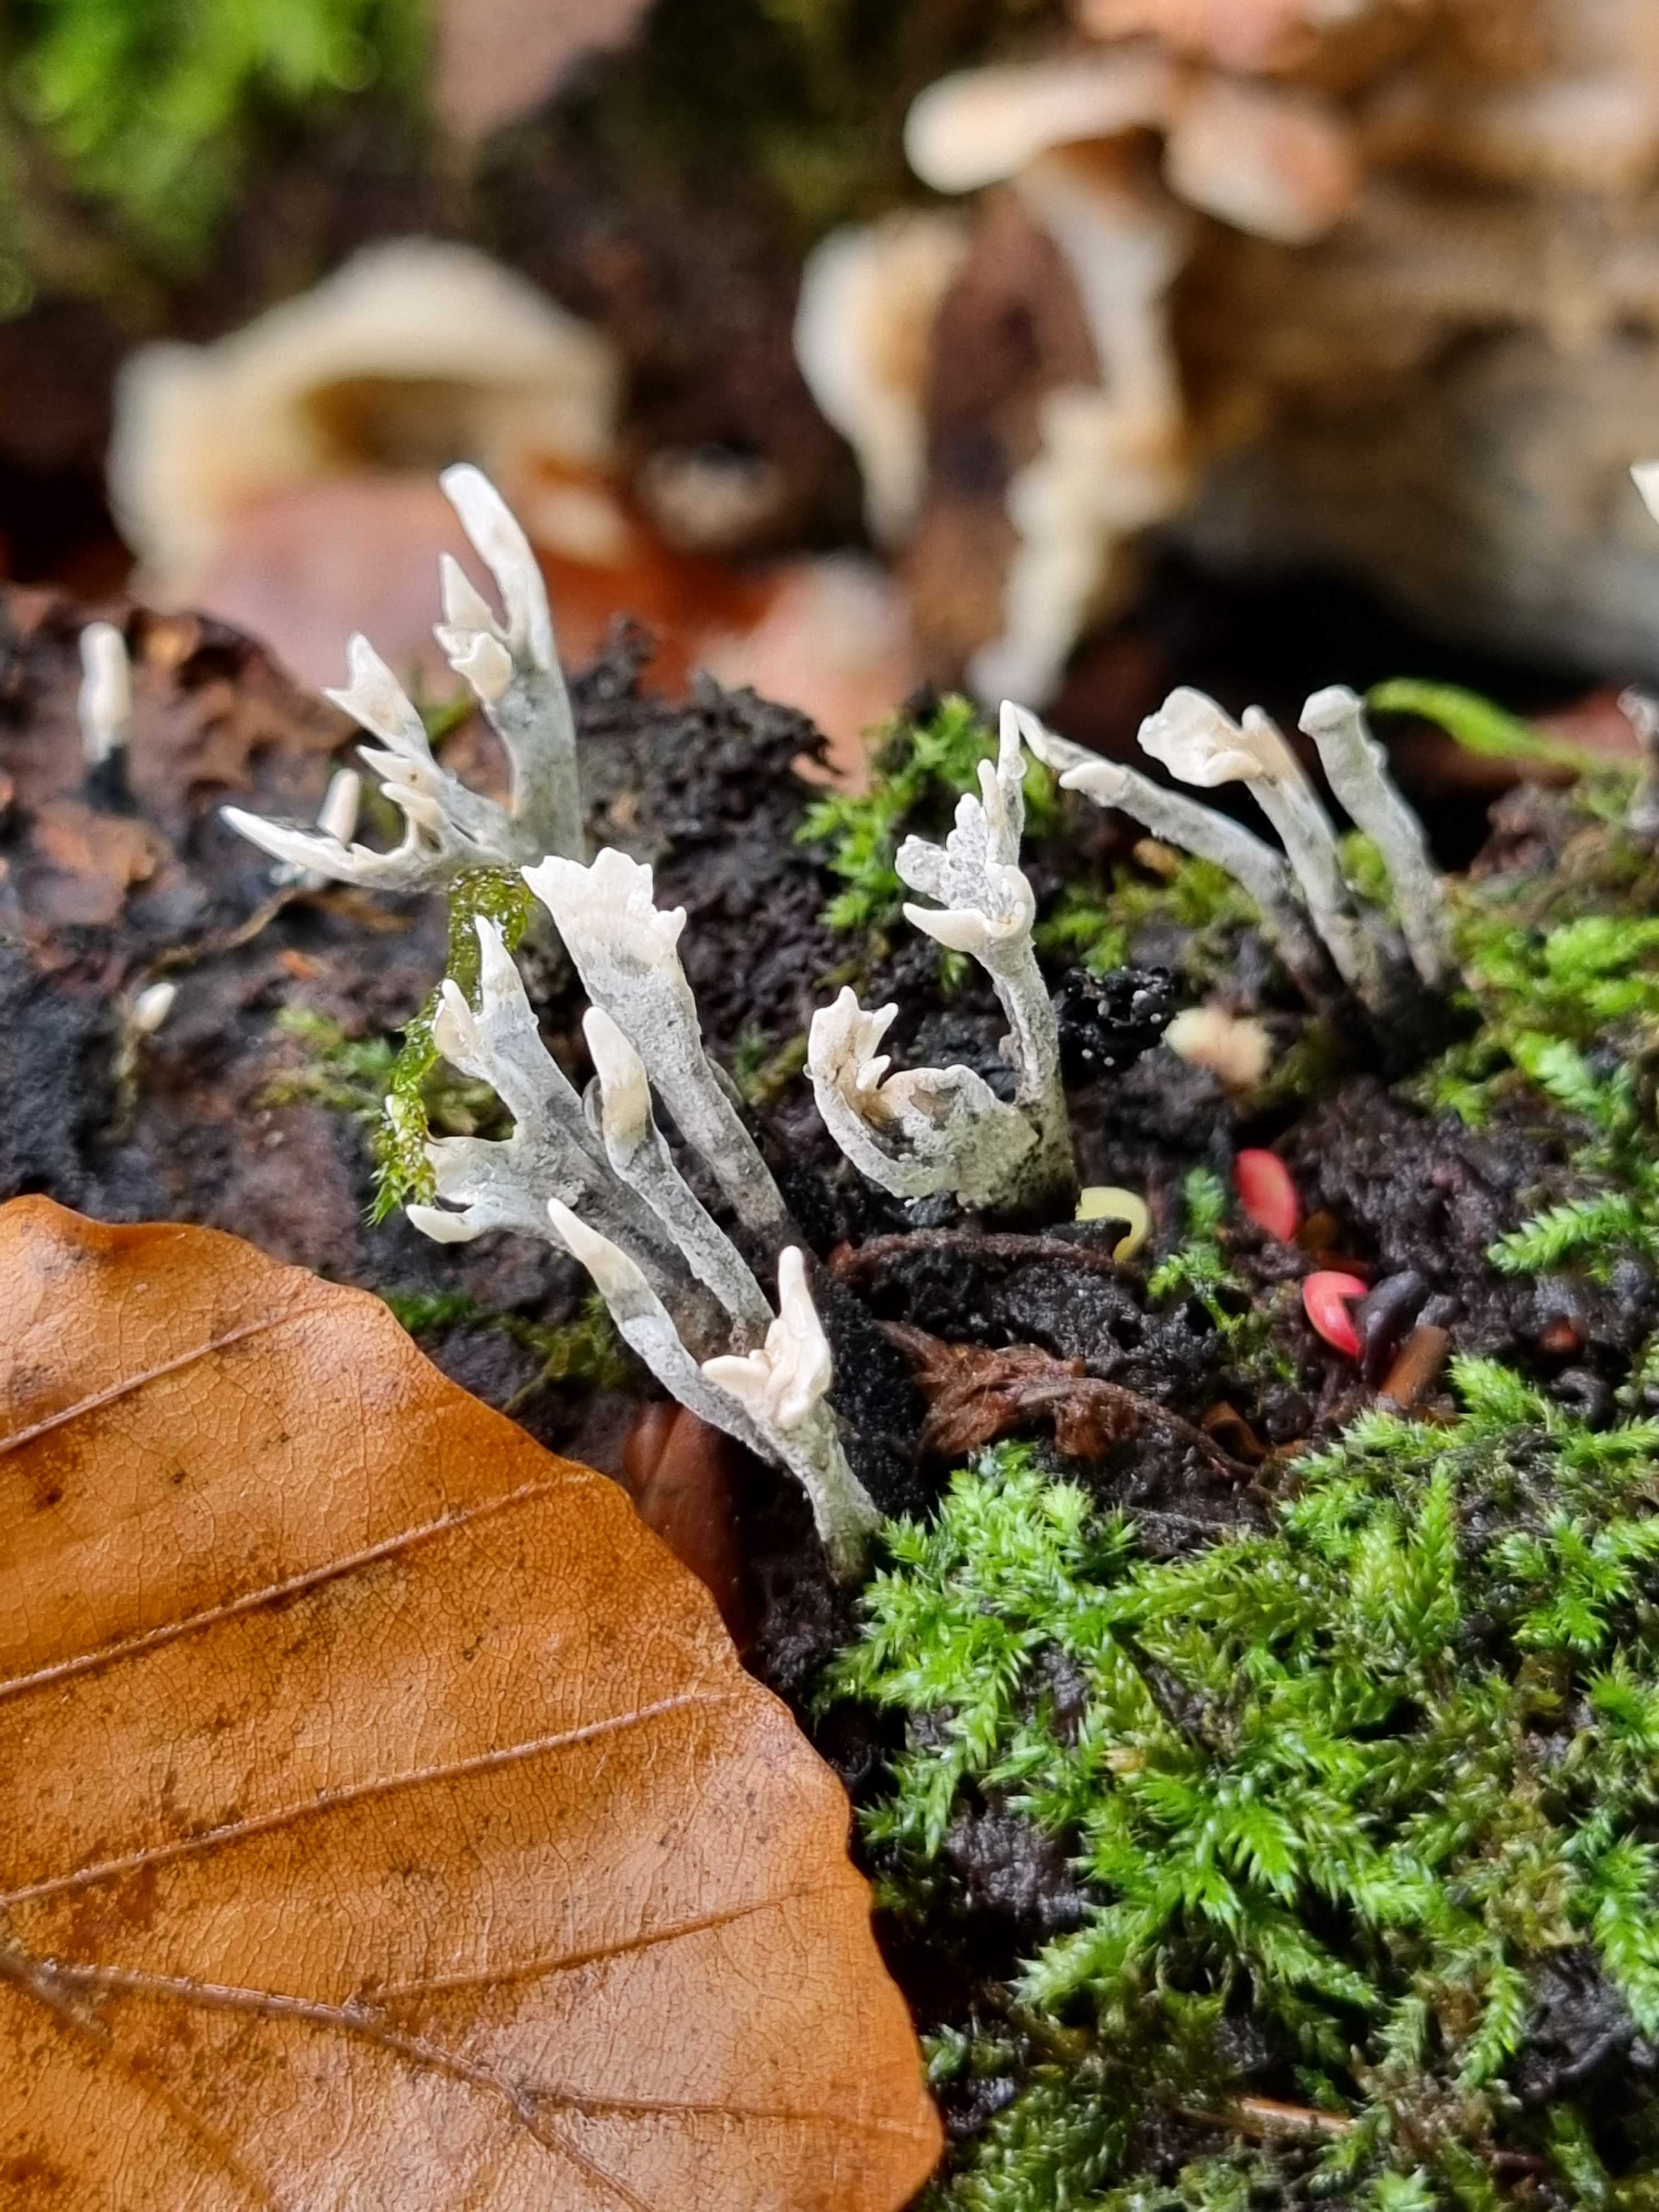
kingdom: Fungi
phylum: Ascomycota
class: Sordariomycetes
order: Xylariales
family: Xylariaceae
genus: Xylaria
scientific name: Xylaria hypoxylon
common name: grenet stødsvamp
